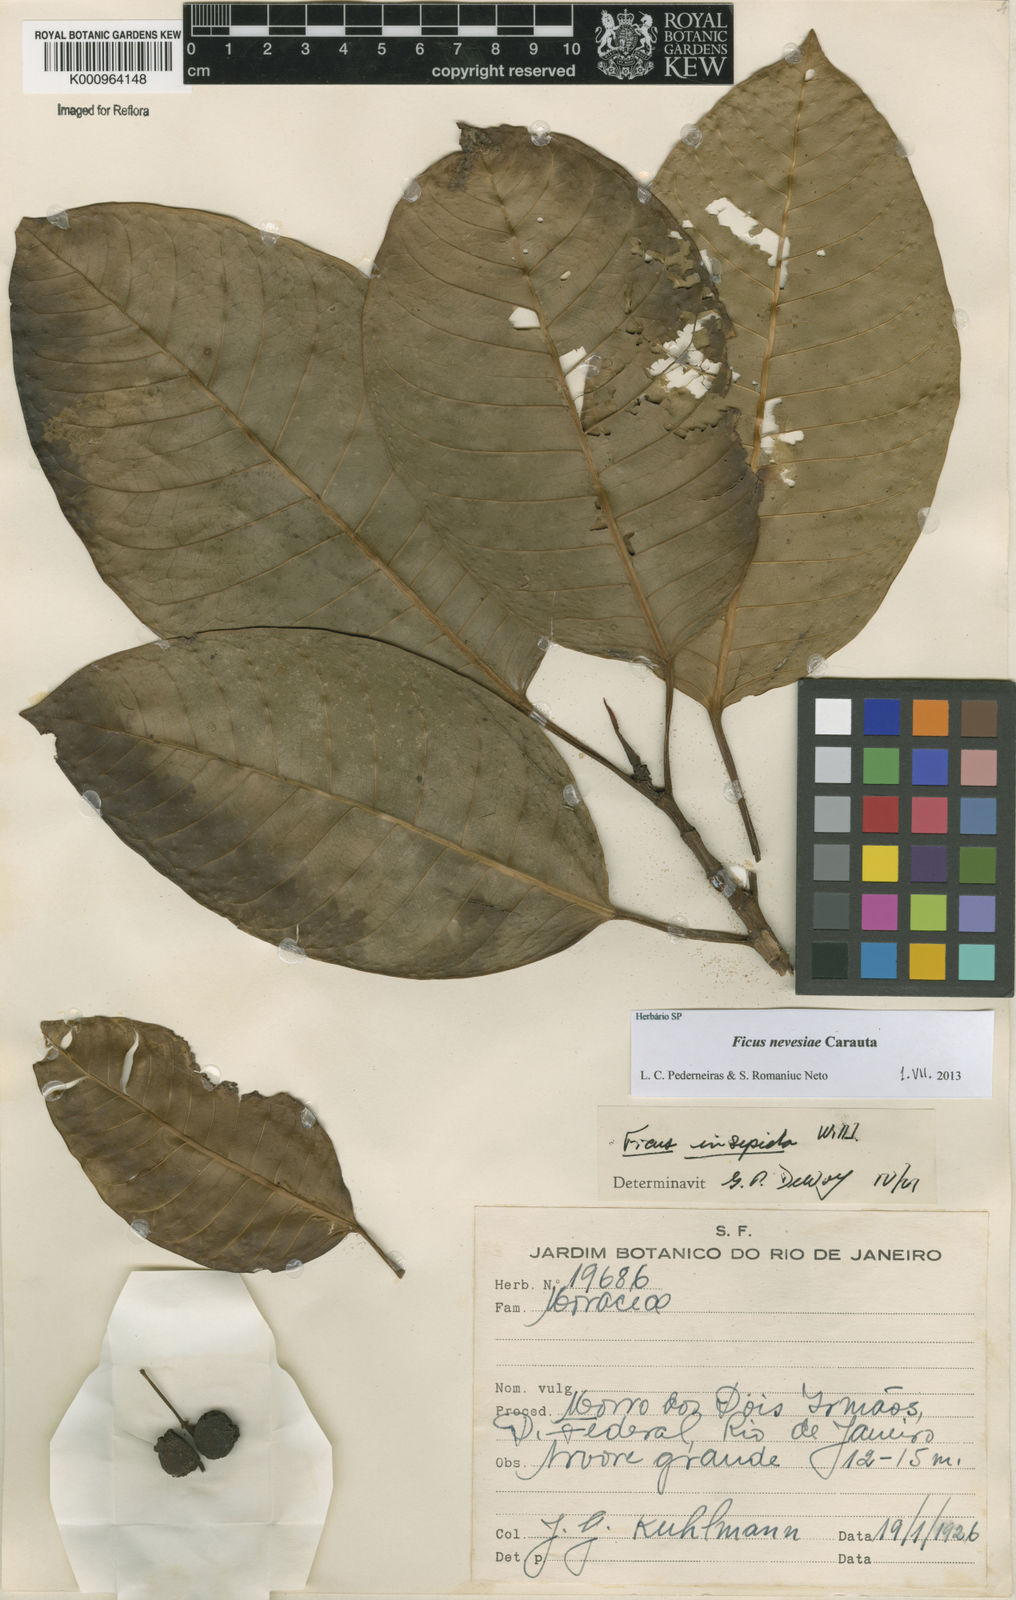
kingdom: Plantae
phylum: Tracheophyta
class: Magnoliopsida
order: Rosales
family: Moraceae
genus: Ficus
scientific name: Ficus vermifuga
